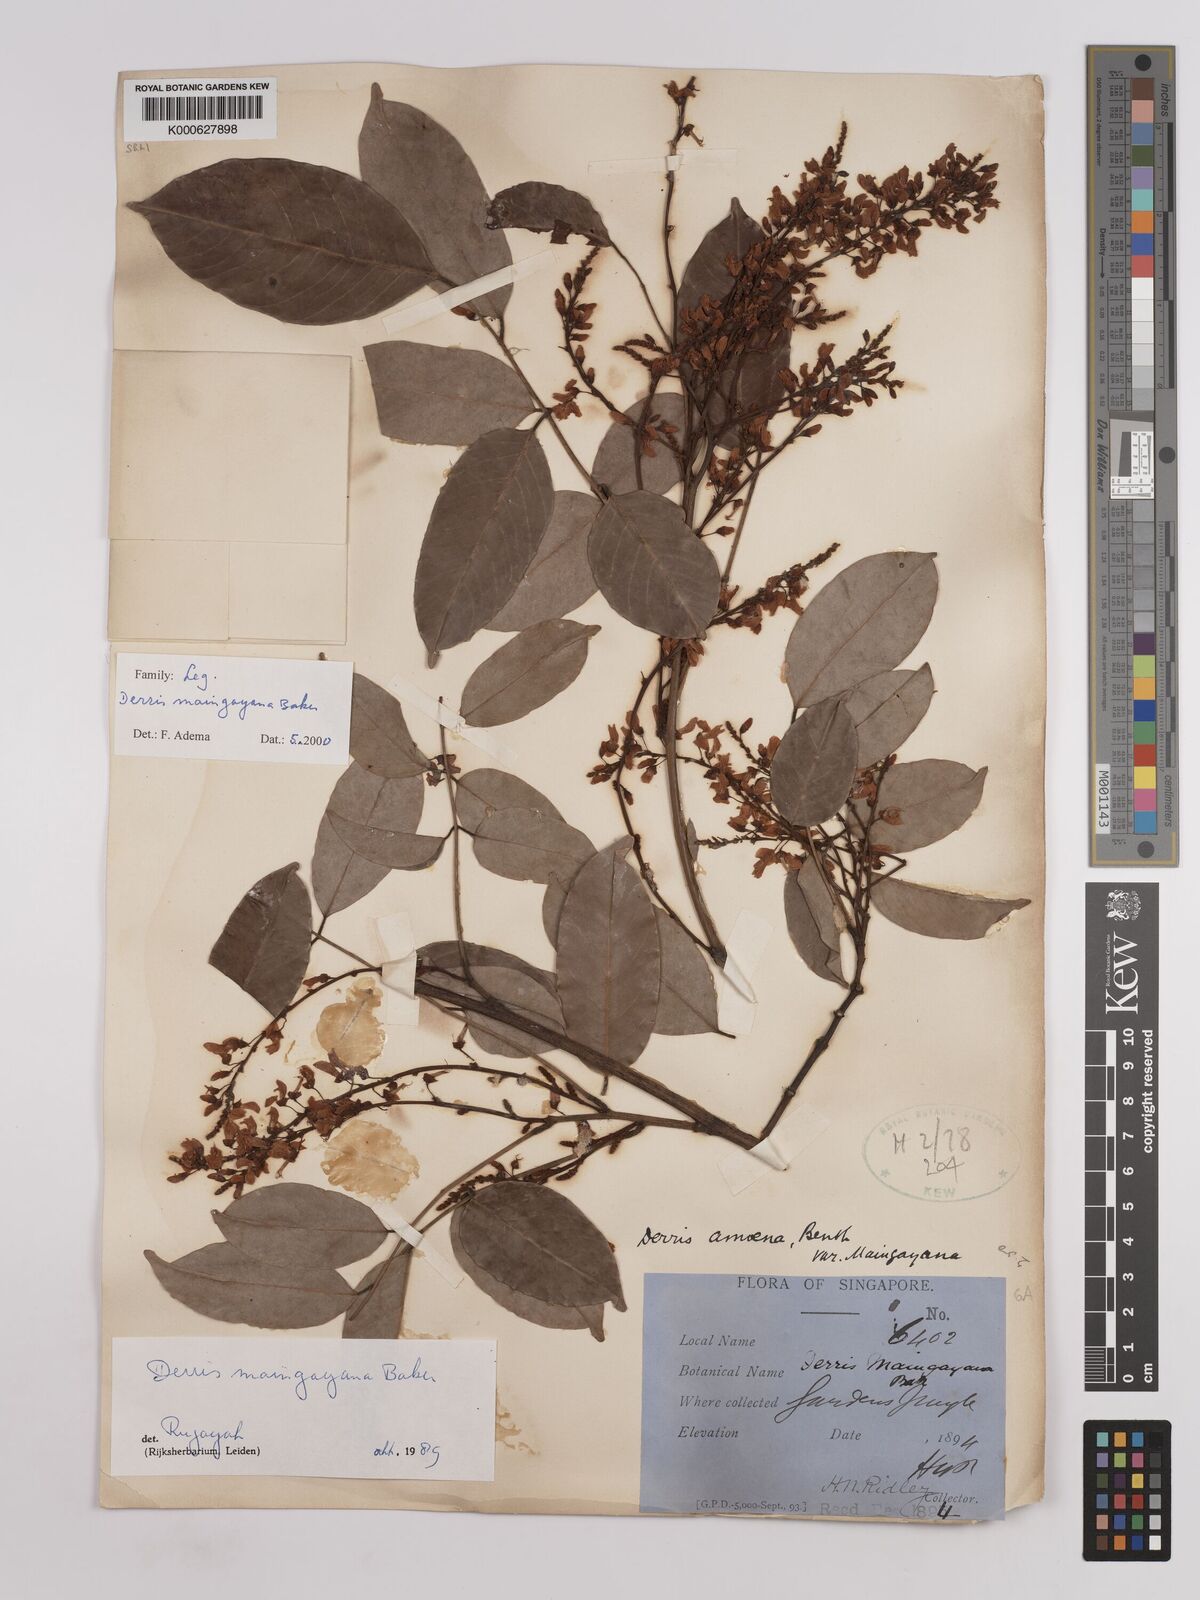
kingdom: Plantae
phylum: Tracheophyta
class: Magnoliopsida
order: Fabales
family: Fabaceae
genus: Derris
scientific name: Derris amoena
